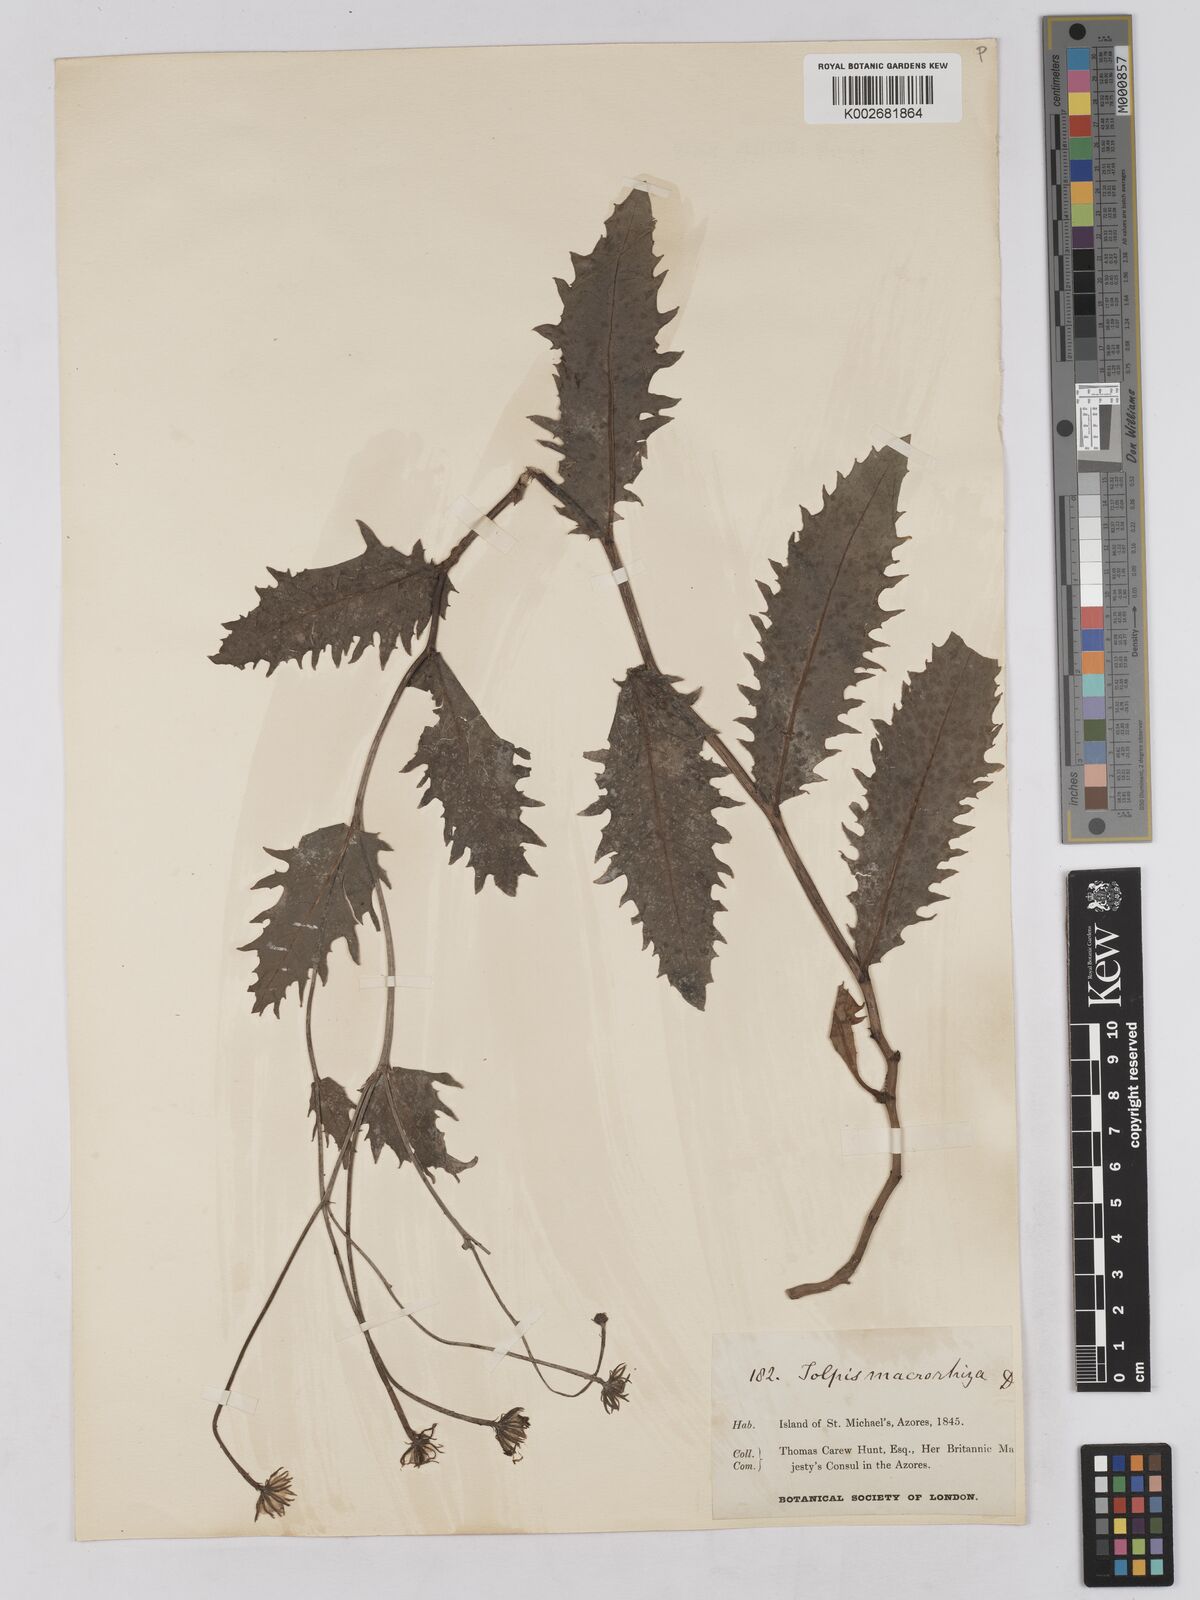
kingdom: Plantae
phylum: Tracheophyta
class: Magnoliopsida
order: Asterales
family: Asteraceae
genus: Tolpis
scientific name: Tolpis nobilis
